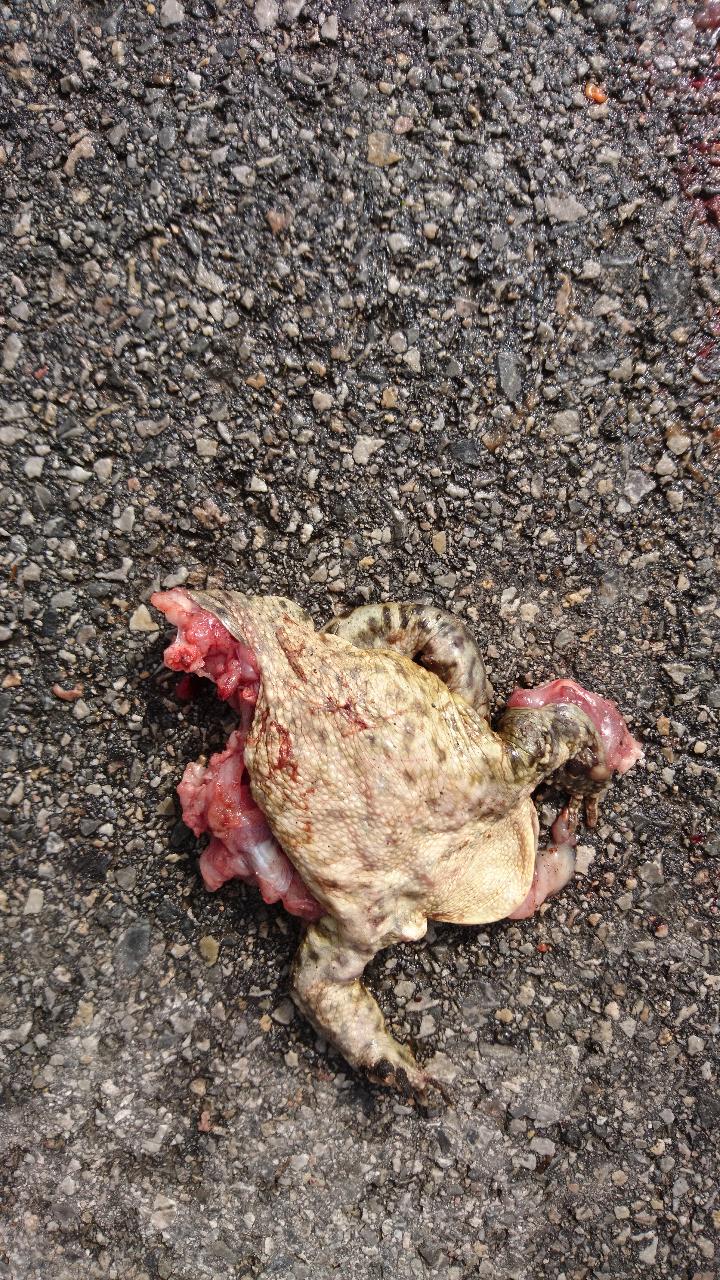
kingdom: Animalia
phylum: Chordata
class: Amphibia
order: Anura
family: Bufonidae
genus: Bufo
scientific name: Bufo bufo
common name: Common toad
